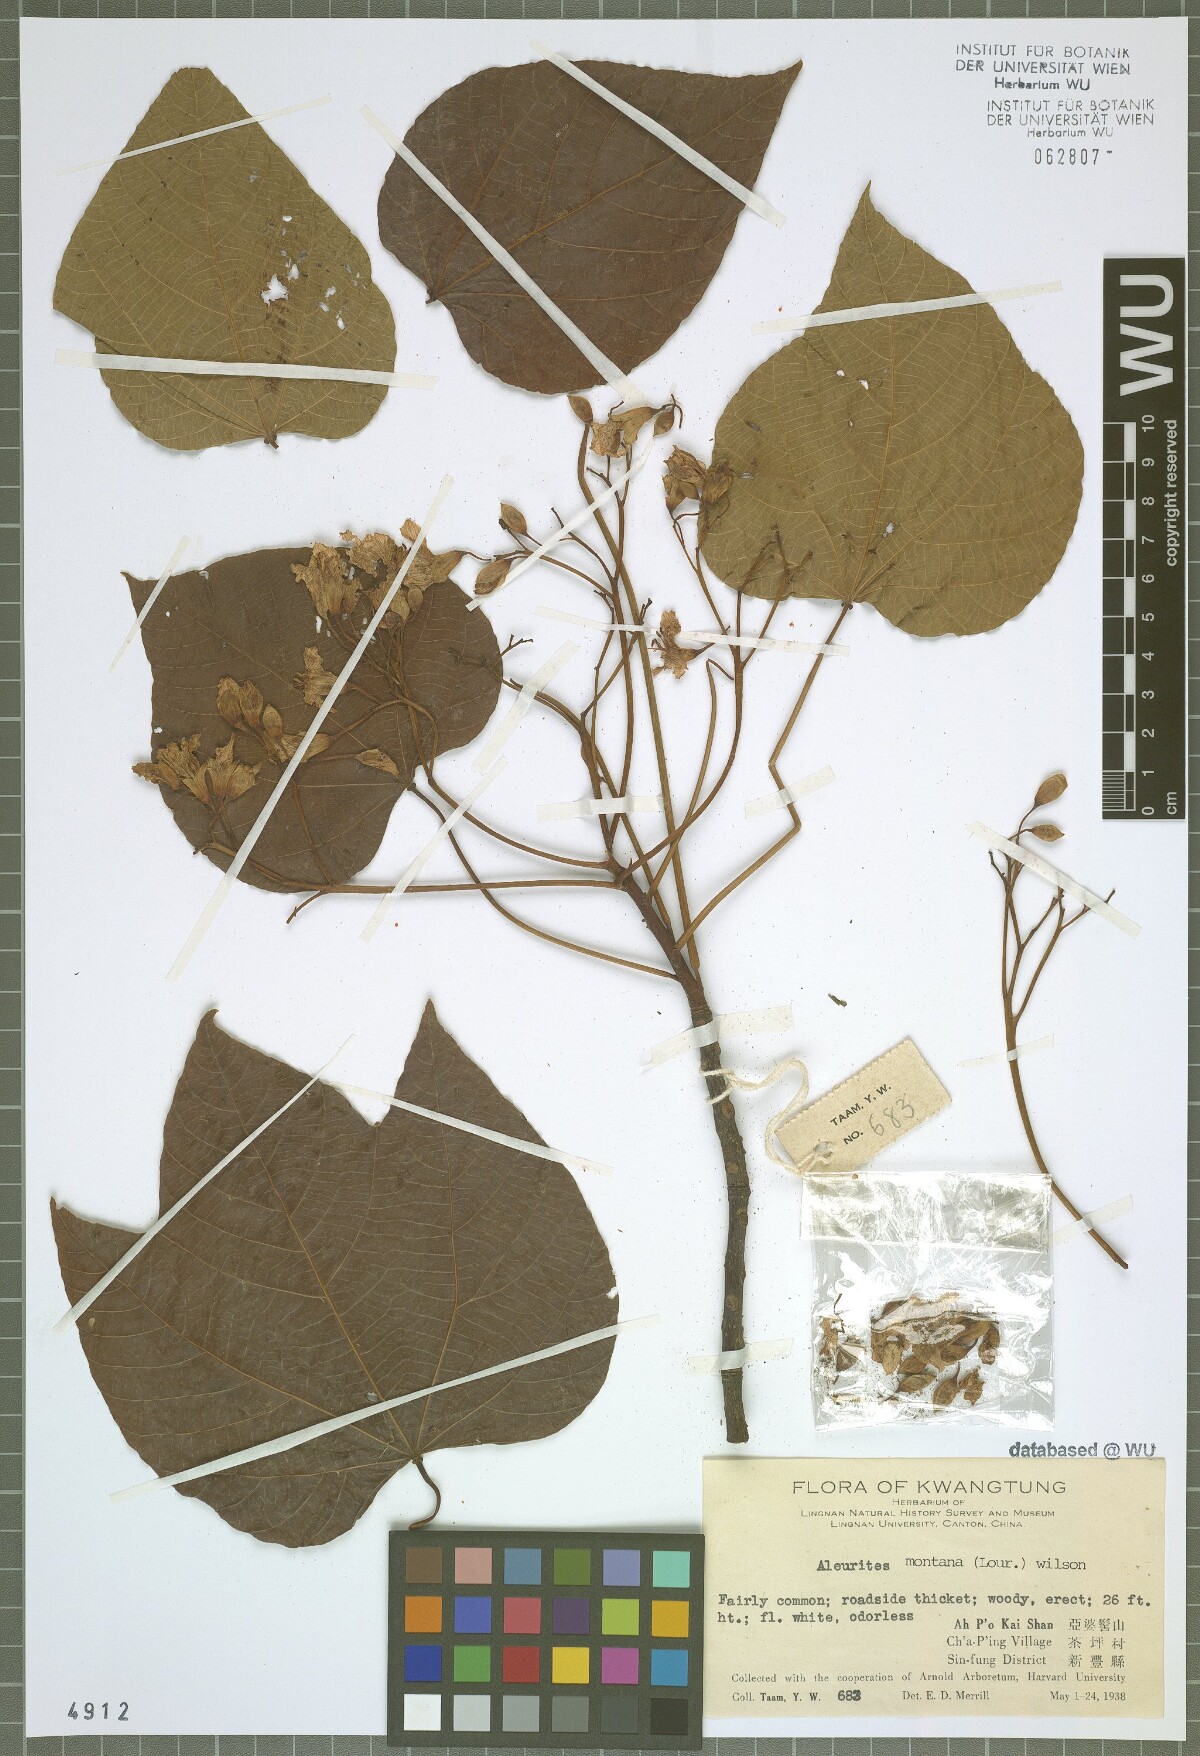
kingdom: Plantae
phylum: Tracheophyta
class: Magnoliopsida
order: Malpighiales
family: Euphorbiaceae
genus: Vernicia
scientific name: Vernicia montana
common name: Mu oil tree
